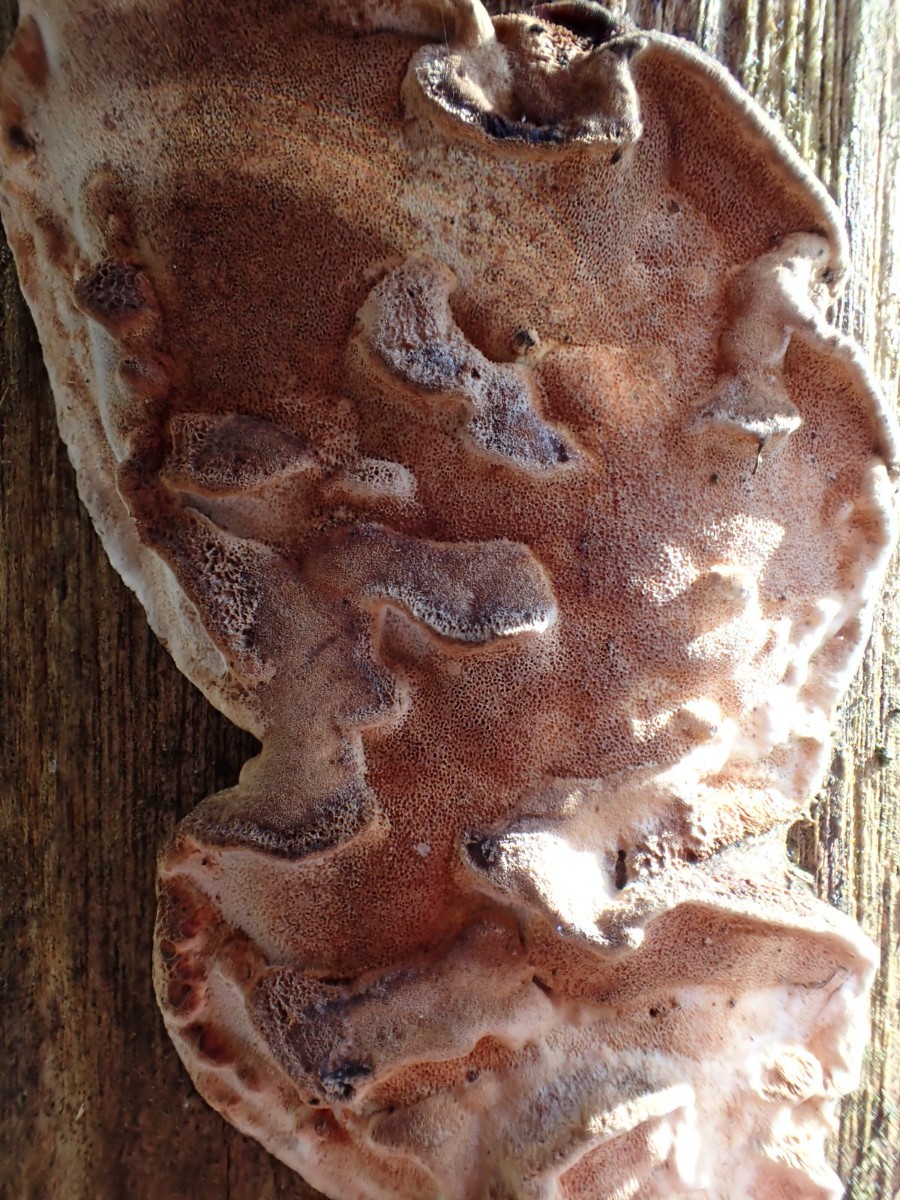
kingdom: Fungi
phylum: Basidiomycota
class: Agaricomycetes
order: Hymenochaetales
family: Hymenochaetaceae
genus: Fuscoporia
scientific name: Fuscoporia ferrea
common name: skorpe-ildporesvamp
